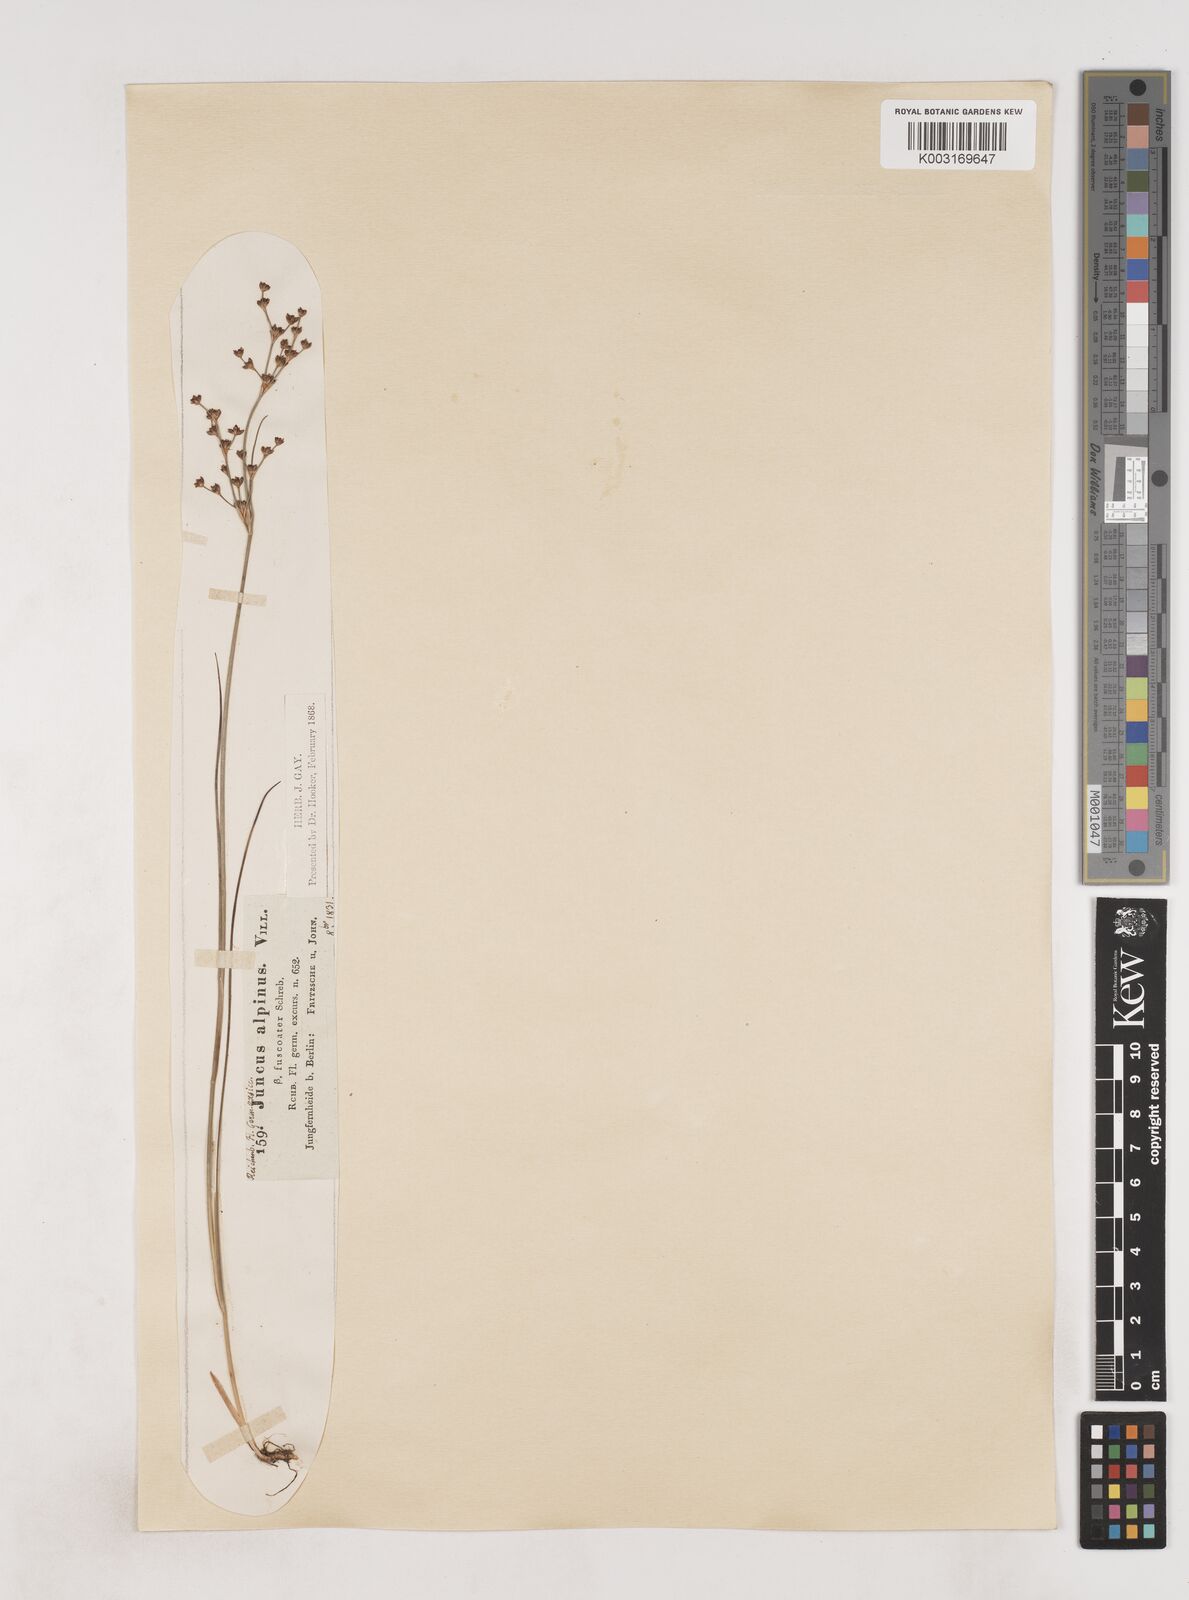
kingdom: Plantae
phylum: Tracheophyta
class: Liliopsida
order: Poales
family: Juncaceae
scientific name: Juncaceae
